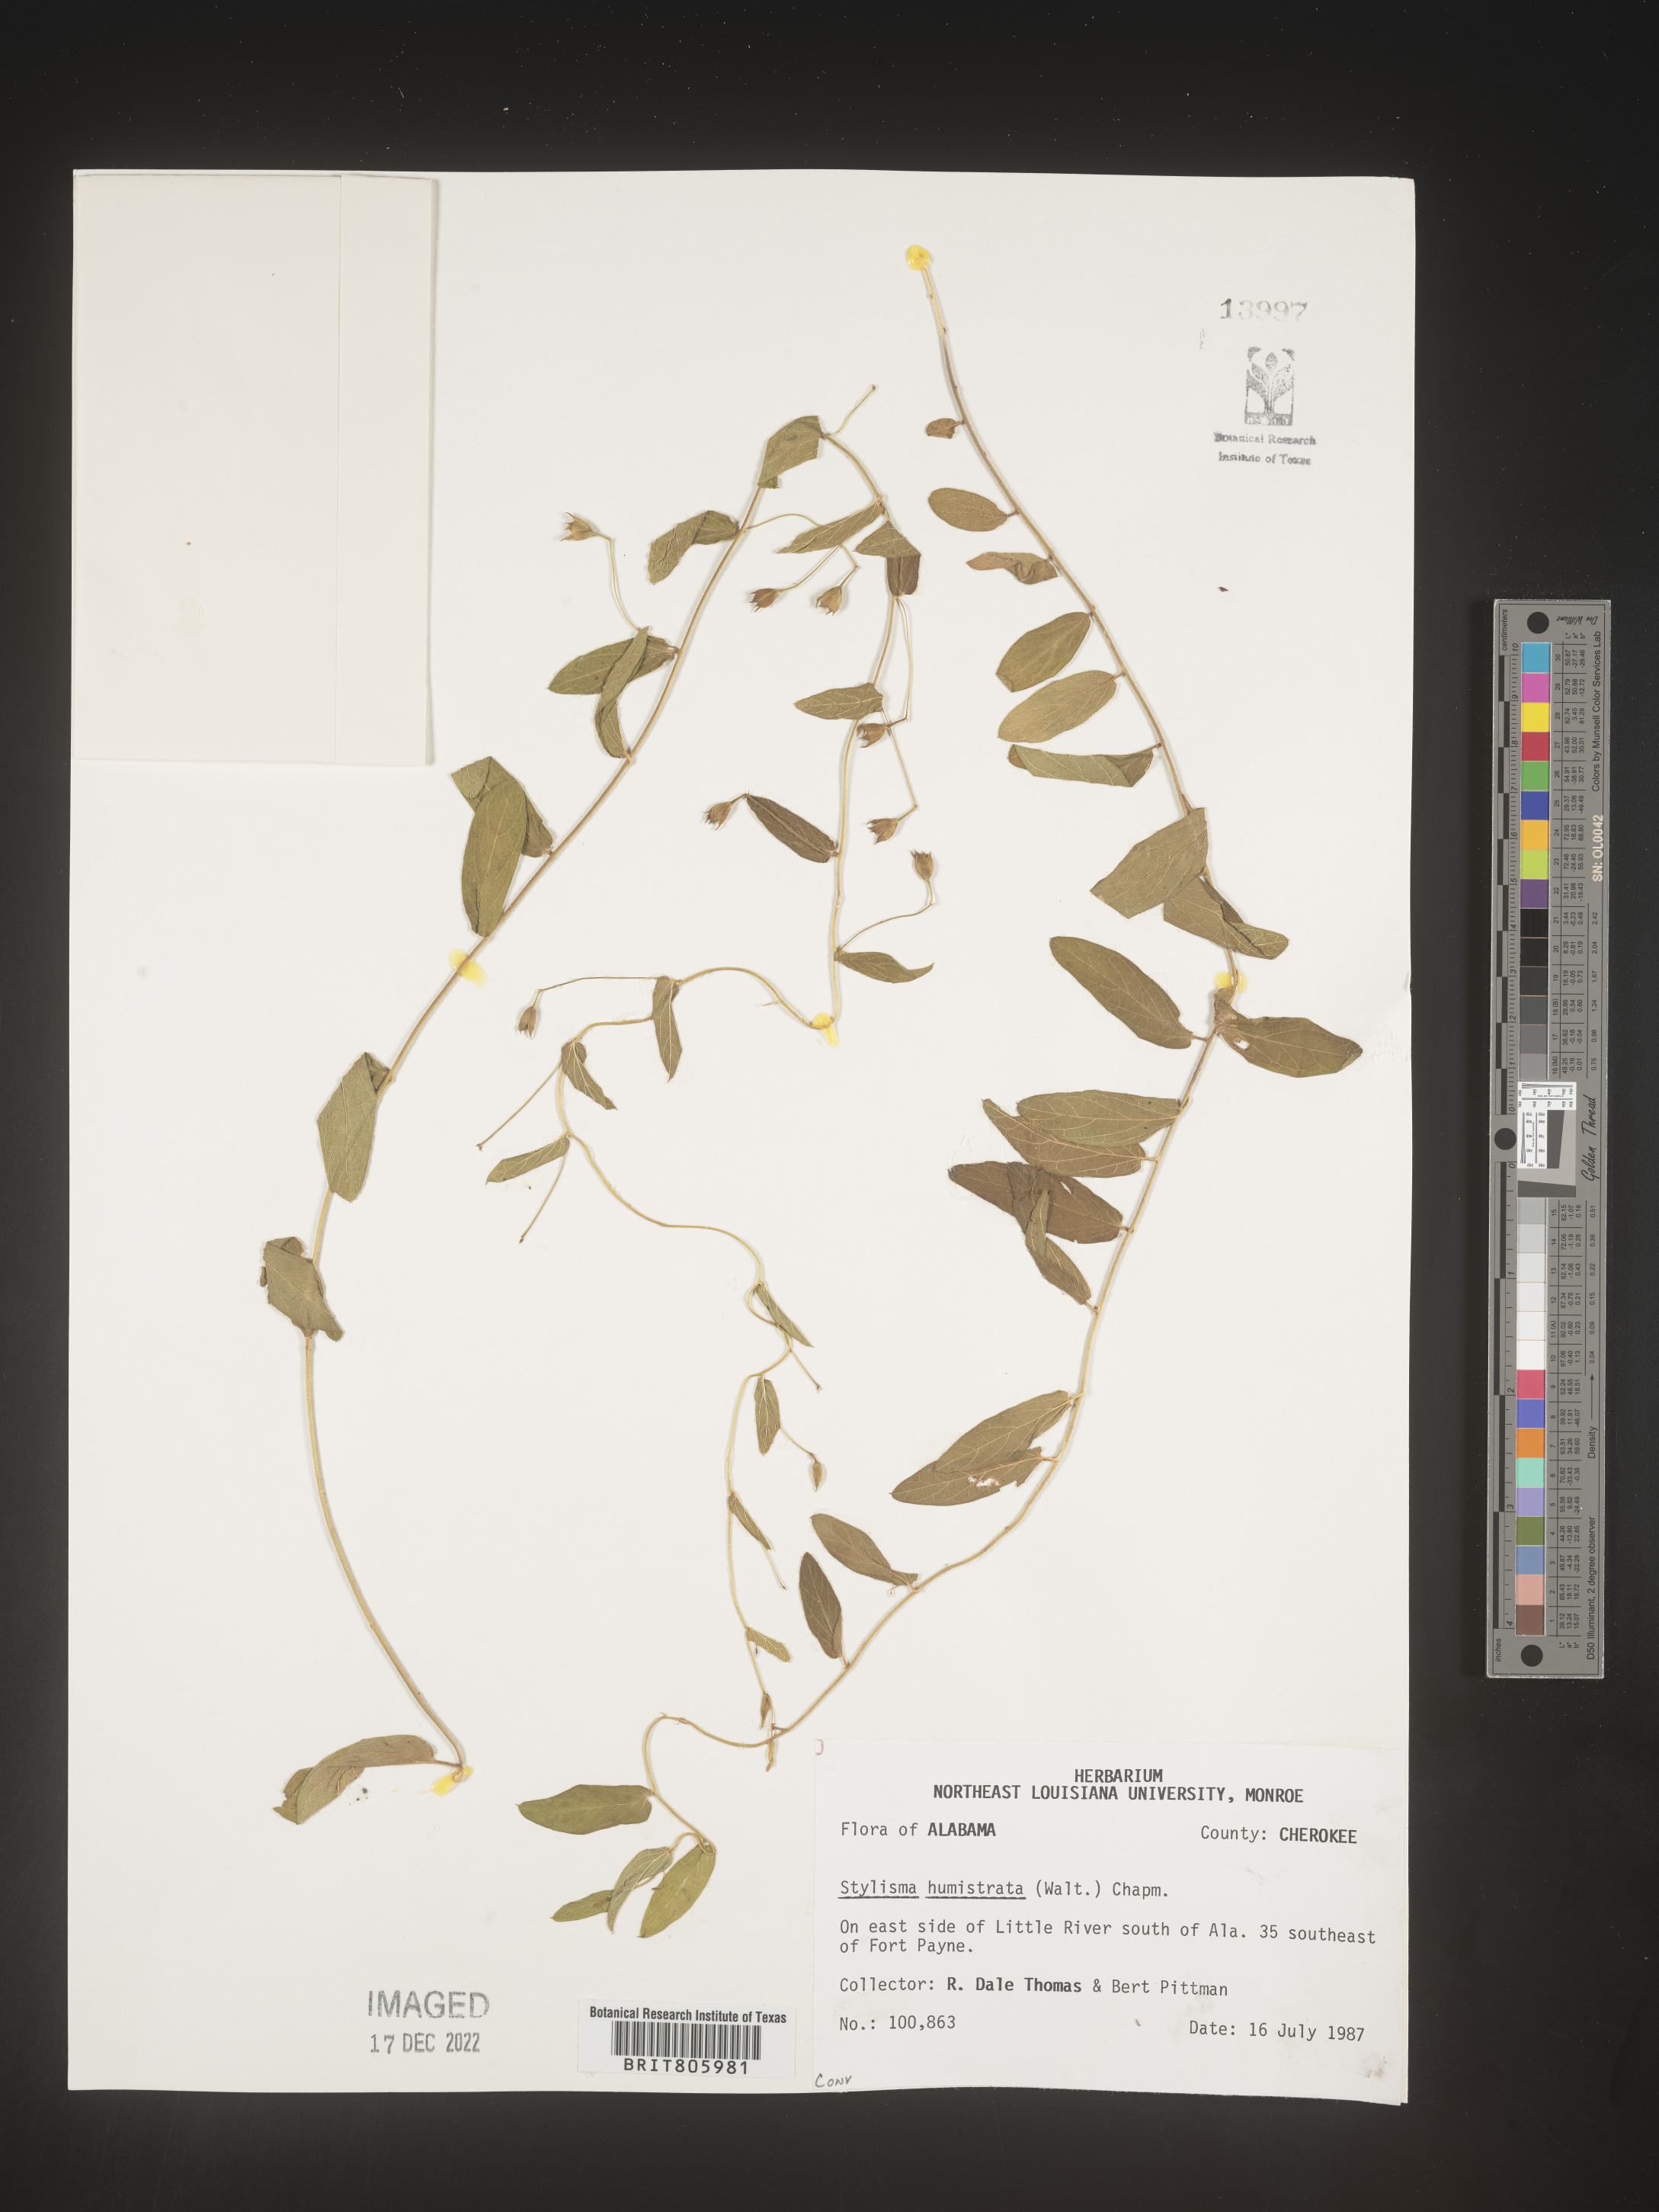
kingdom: Plantae
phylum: Tracheophyta
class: Magnoliopsida
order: Solanales
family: Convolvulaceae
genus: Stylisma
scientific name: Stylisma humistrata
